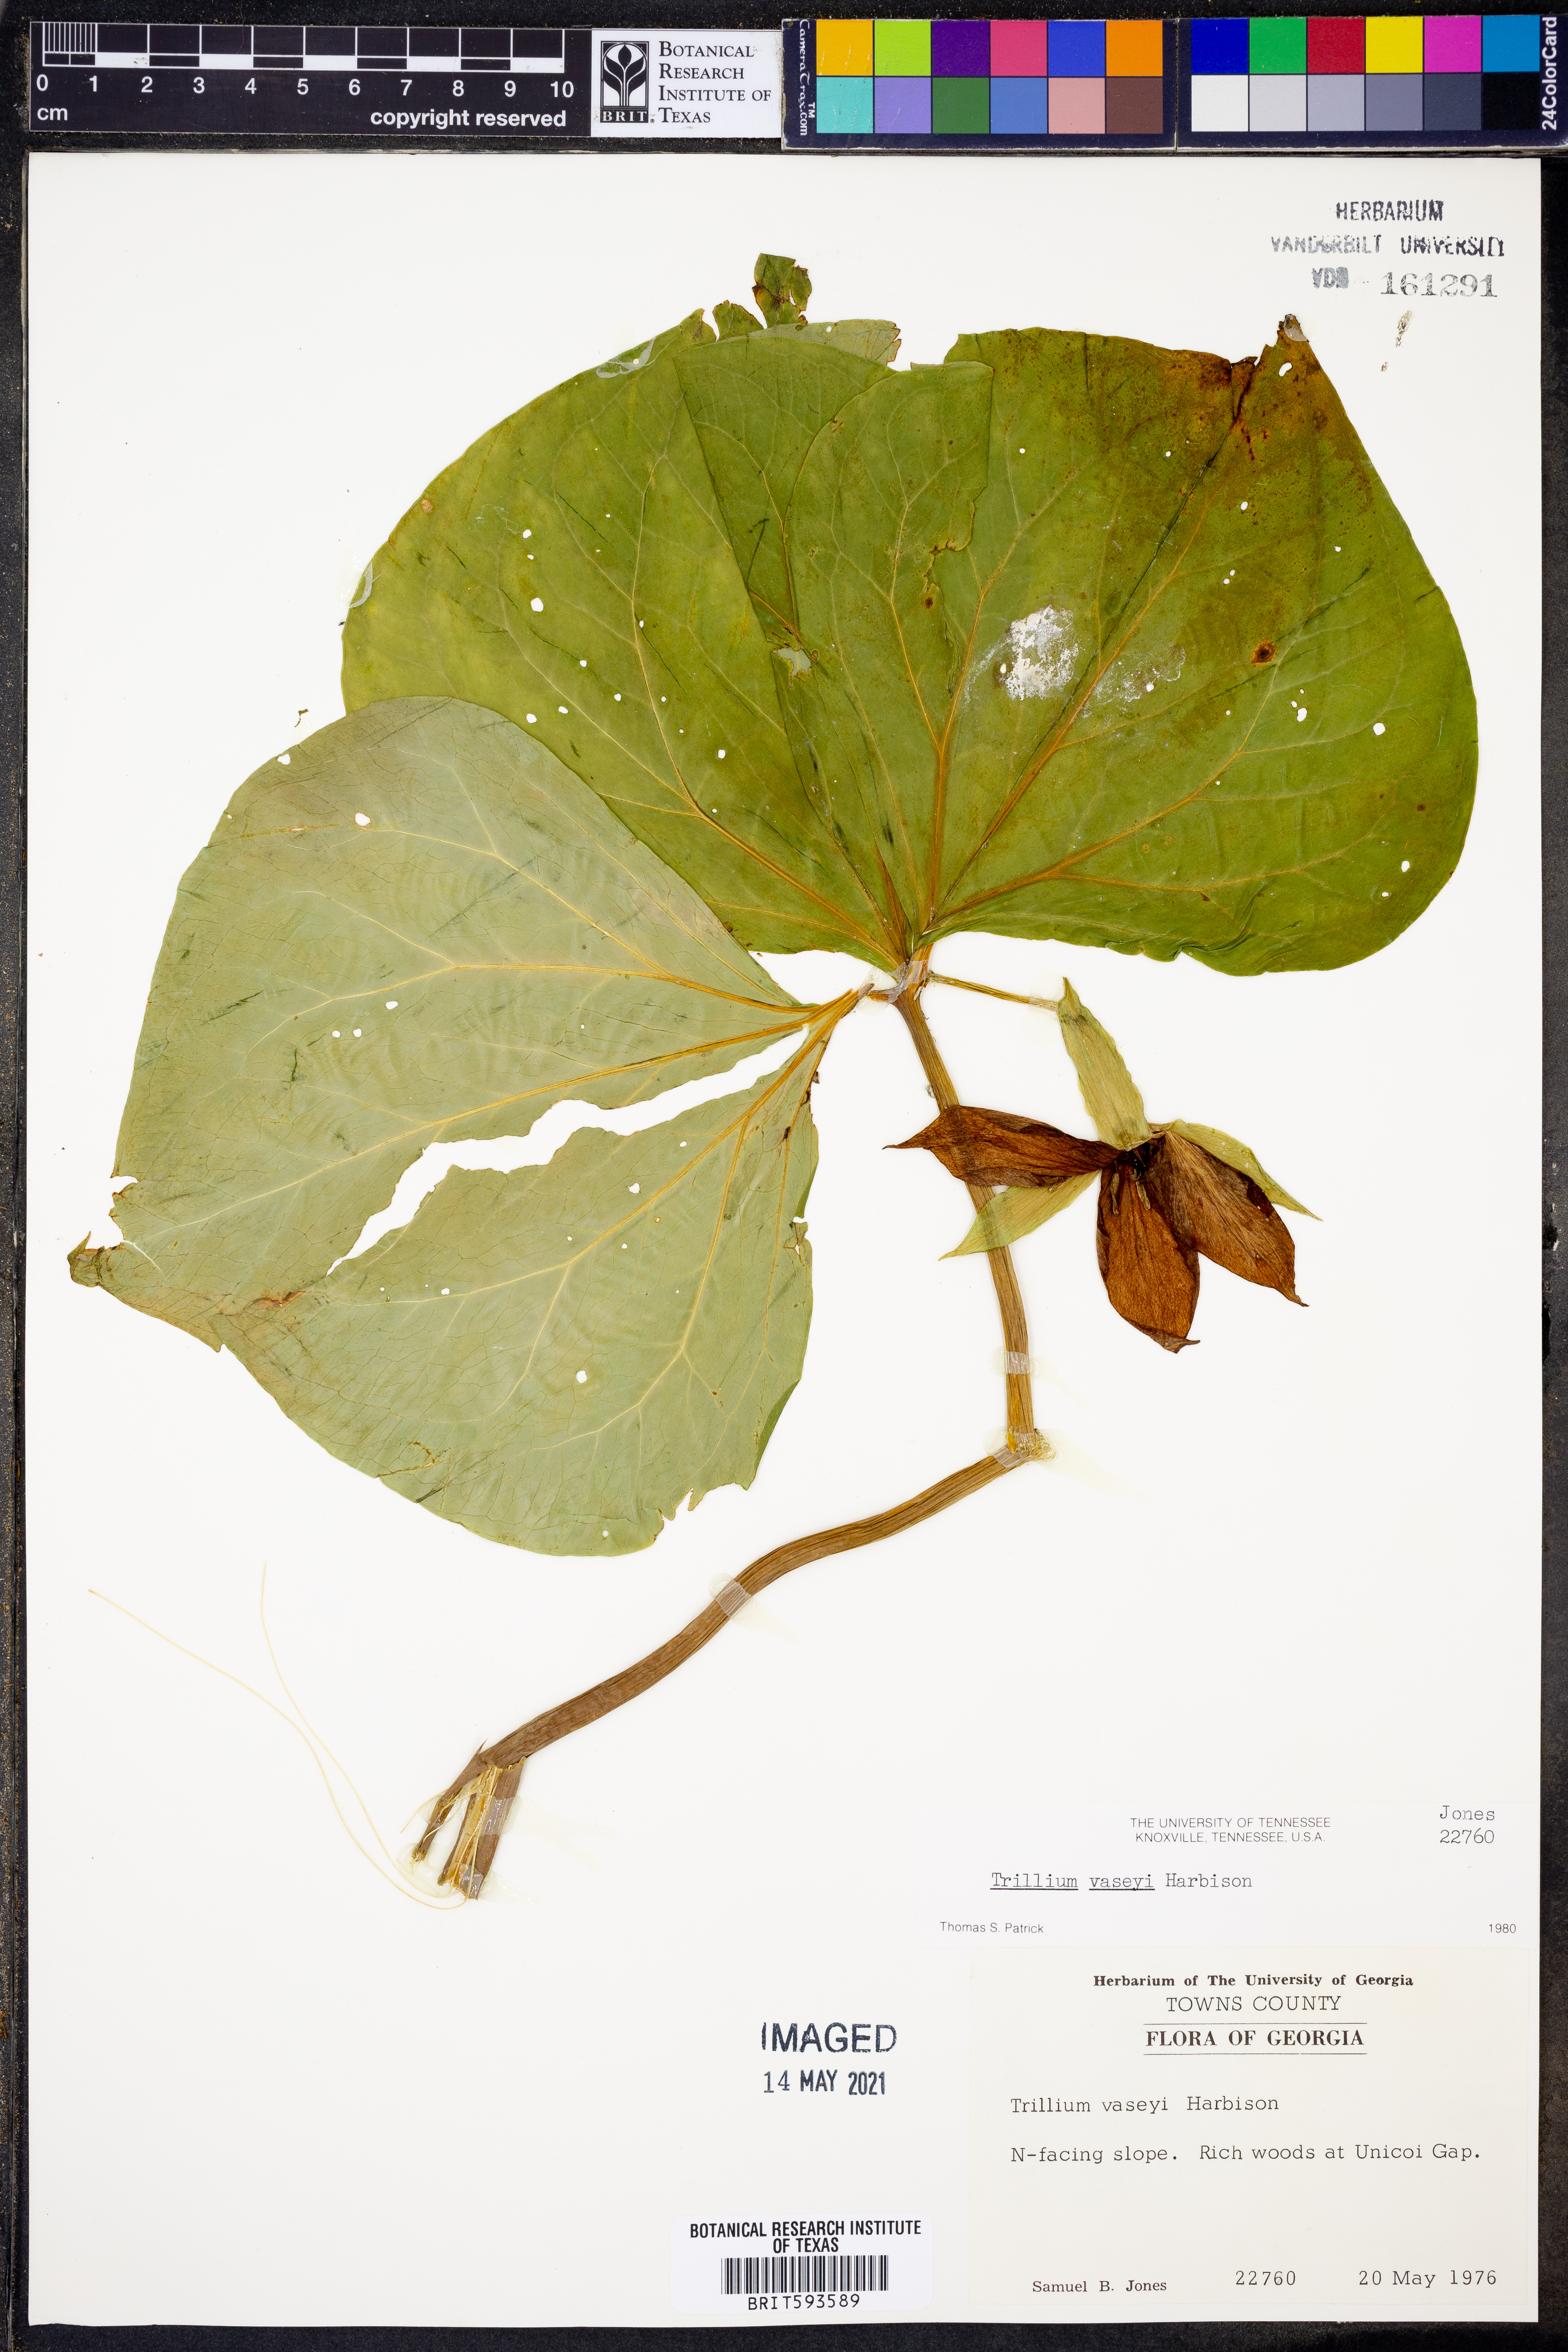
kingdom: Plantae
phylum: Tracheophyta
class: Liliopsida
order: Liliales
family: Melanthiaceae
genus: Trillium
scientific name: Trillium vaseyi
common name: Sweet trillium
